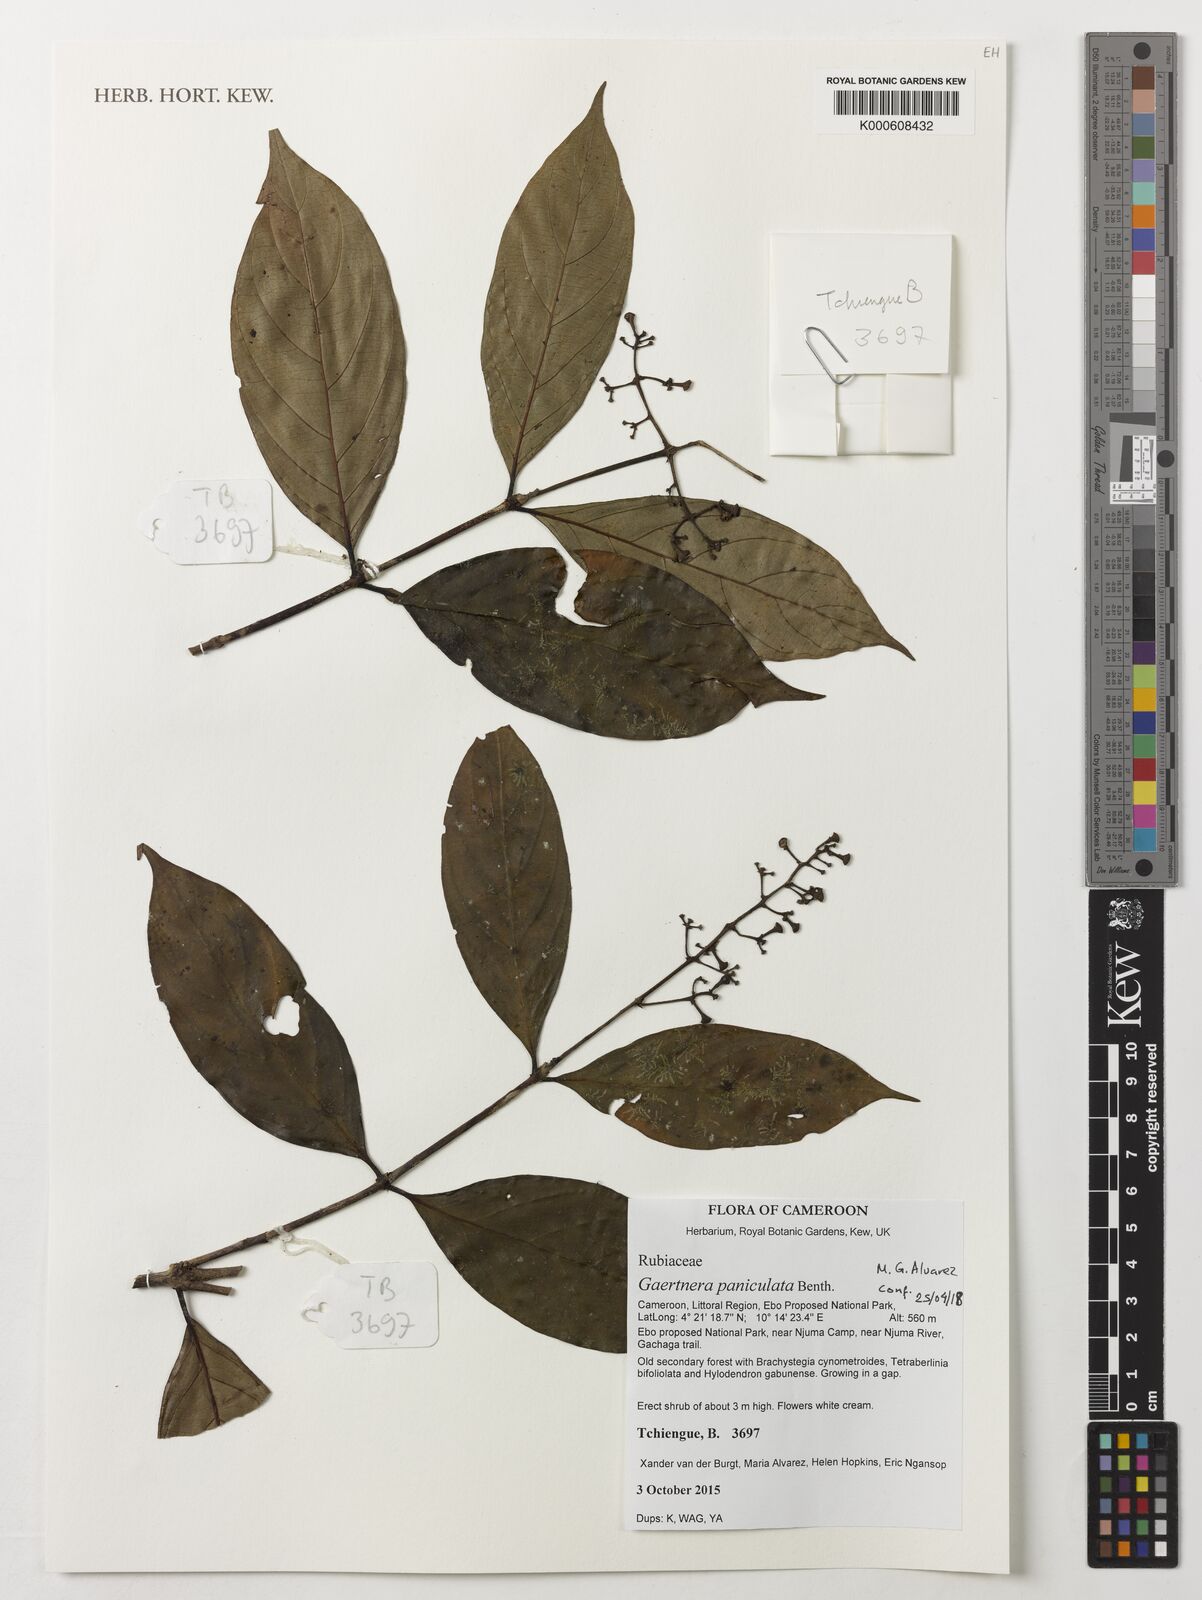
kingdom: Plantae
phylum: Tracheophyta
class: Magnoliopsida
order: Gentianales
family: Rubiaceae
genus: Gaertnera
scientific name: Gaertnera paniculata
